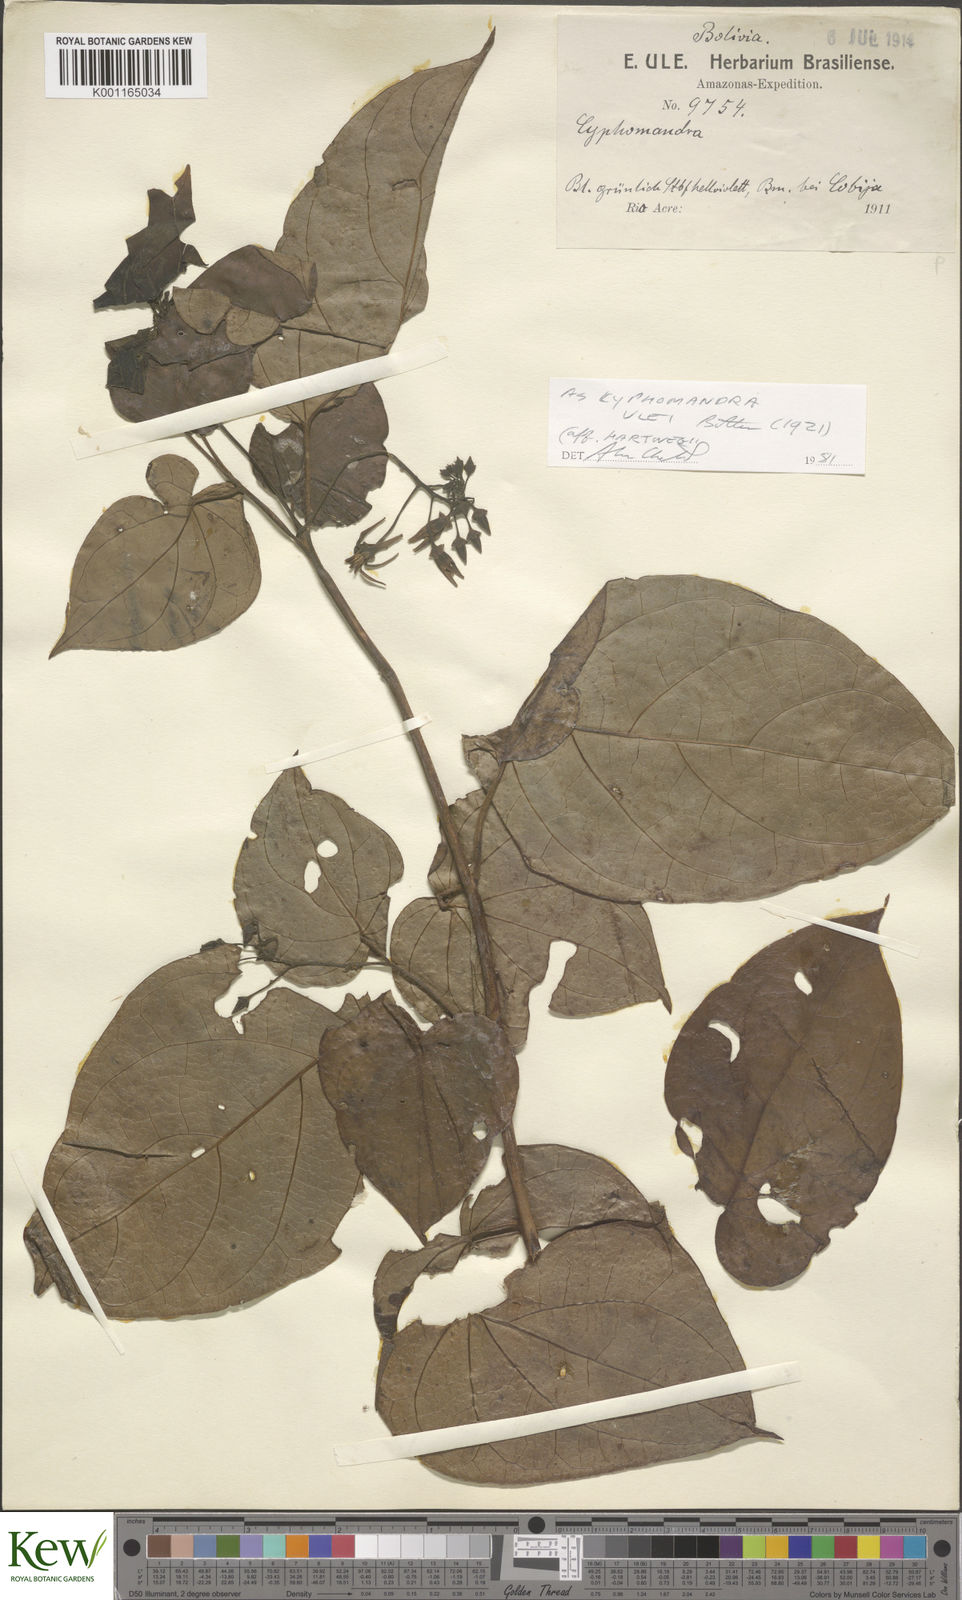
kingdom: Plantae
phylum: Tracheophyta
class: Magnoliopsida
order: Solanales
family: Solanaceae
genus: Solanum
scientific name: Solanum obliquum
